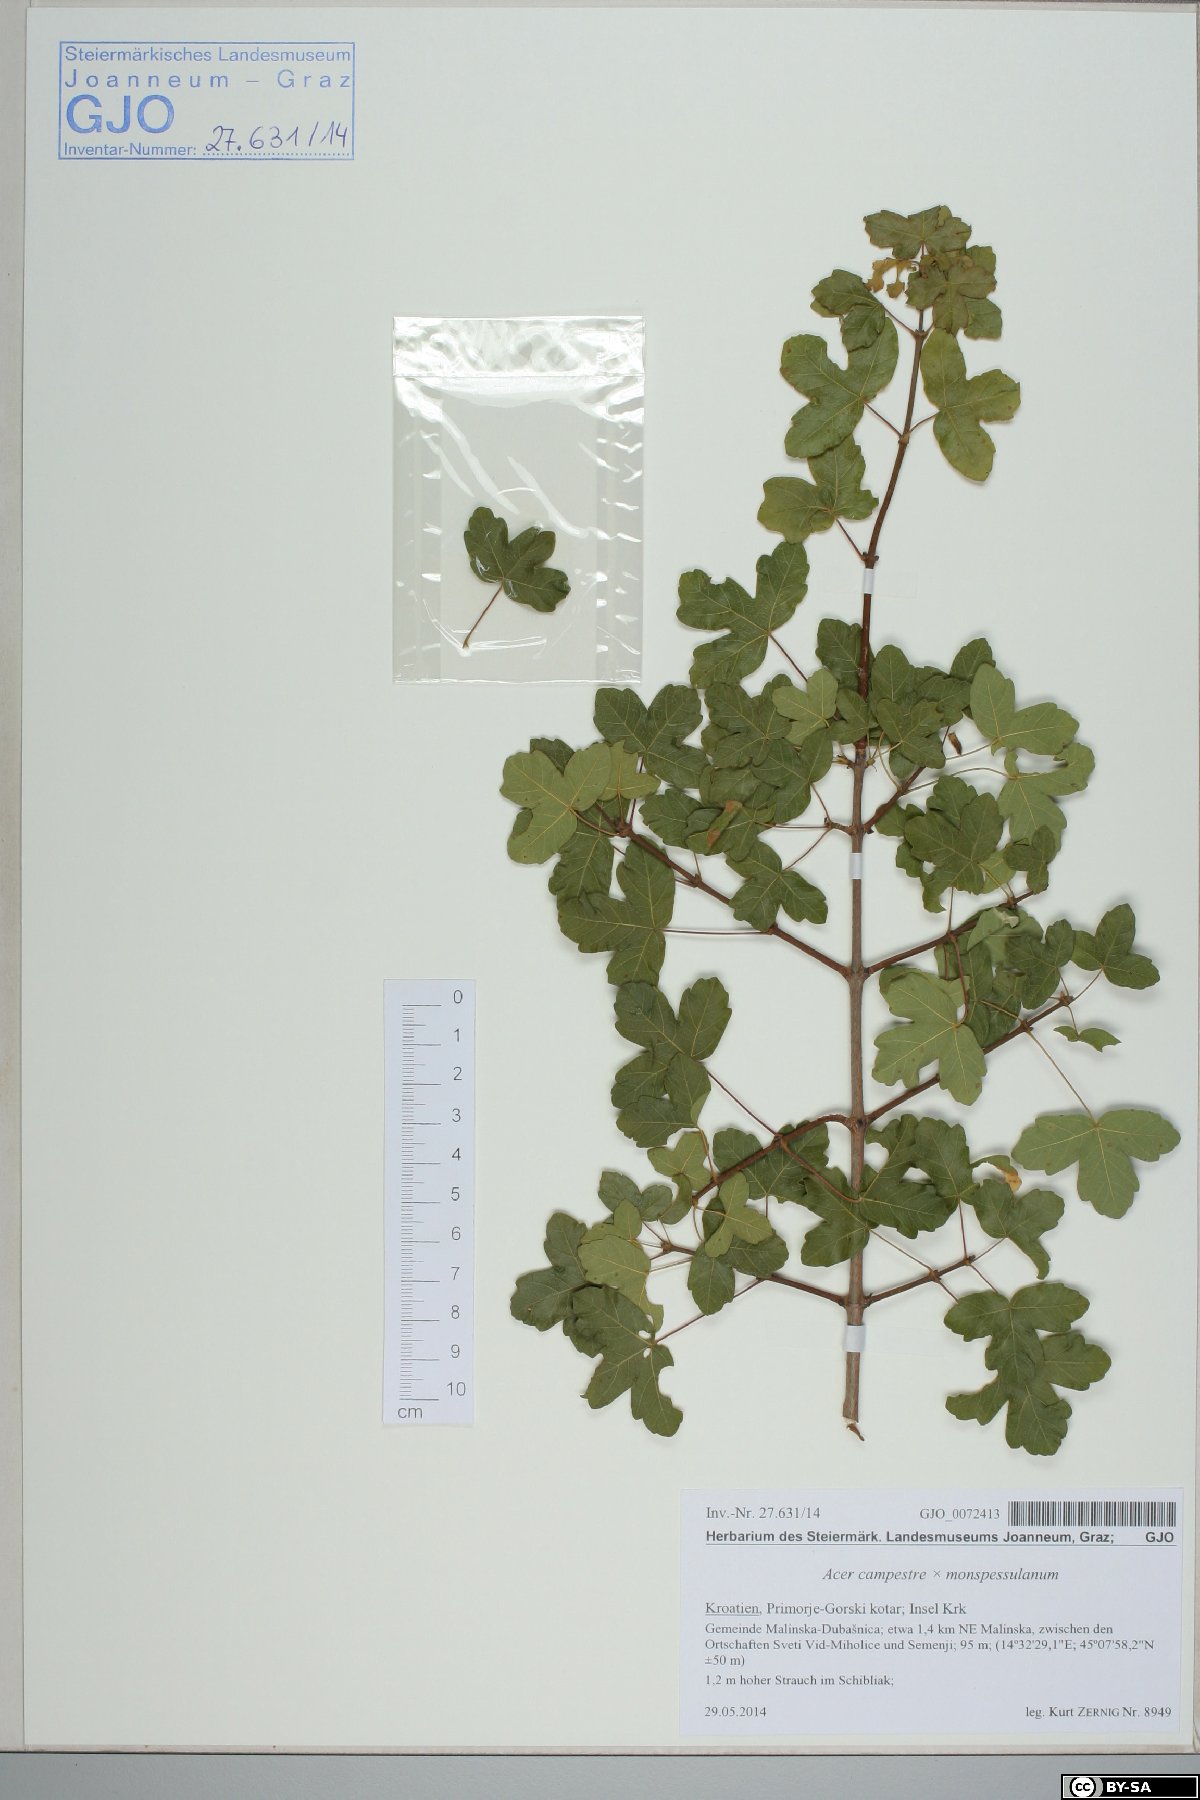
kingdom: Plantae
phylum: Tracheophyta
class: Magnoliopsida
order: Sapindales
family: Sapindaceae
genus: Acer
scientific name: Acer campestre
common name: Field maple
